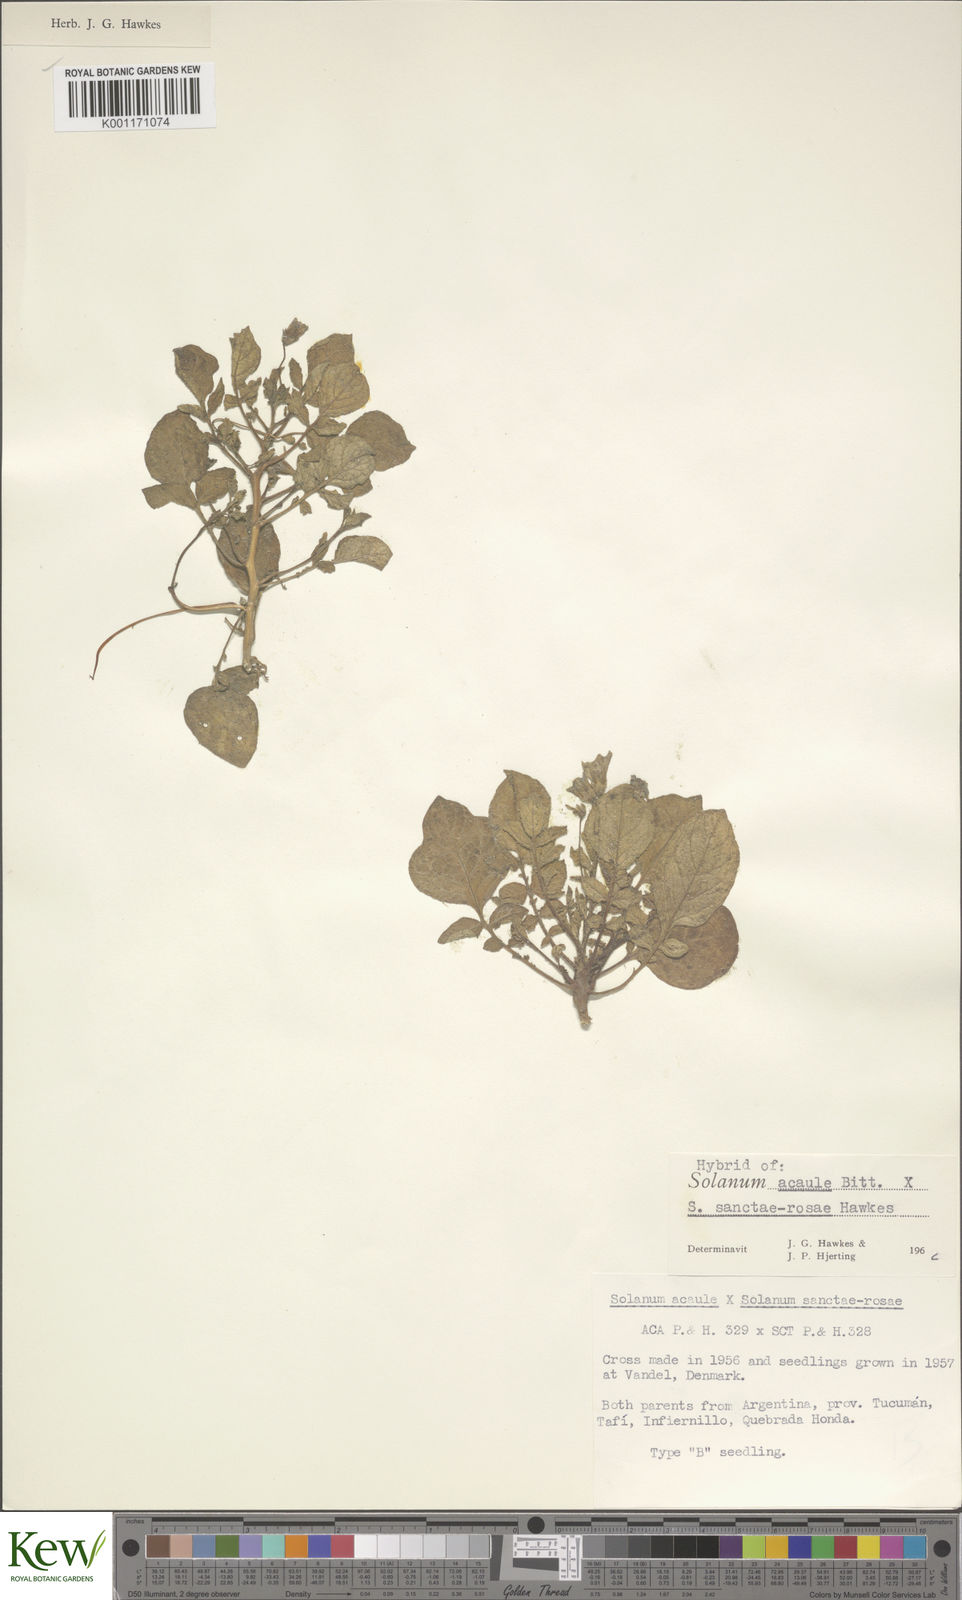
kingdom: Plantae
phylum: Tracheophyta
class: Magnoliopsida
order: Solanales
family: Solanaceae
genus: Solanum
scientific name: Solanum acaule
